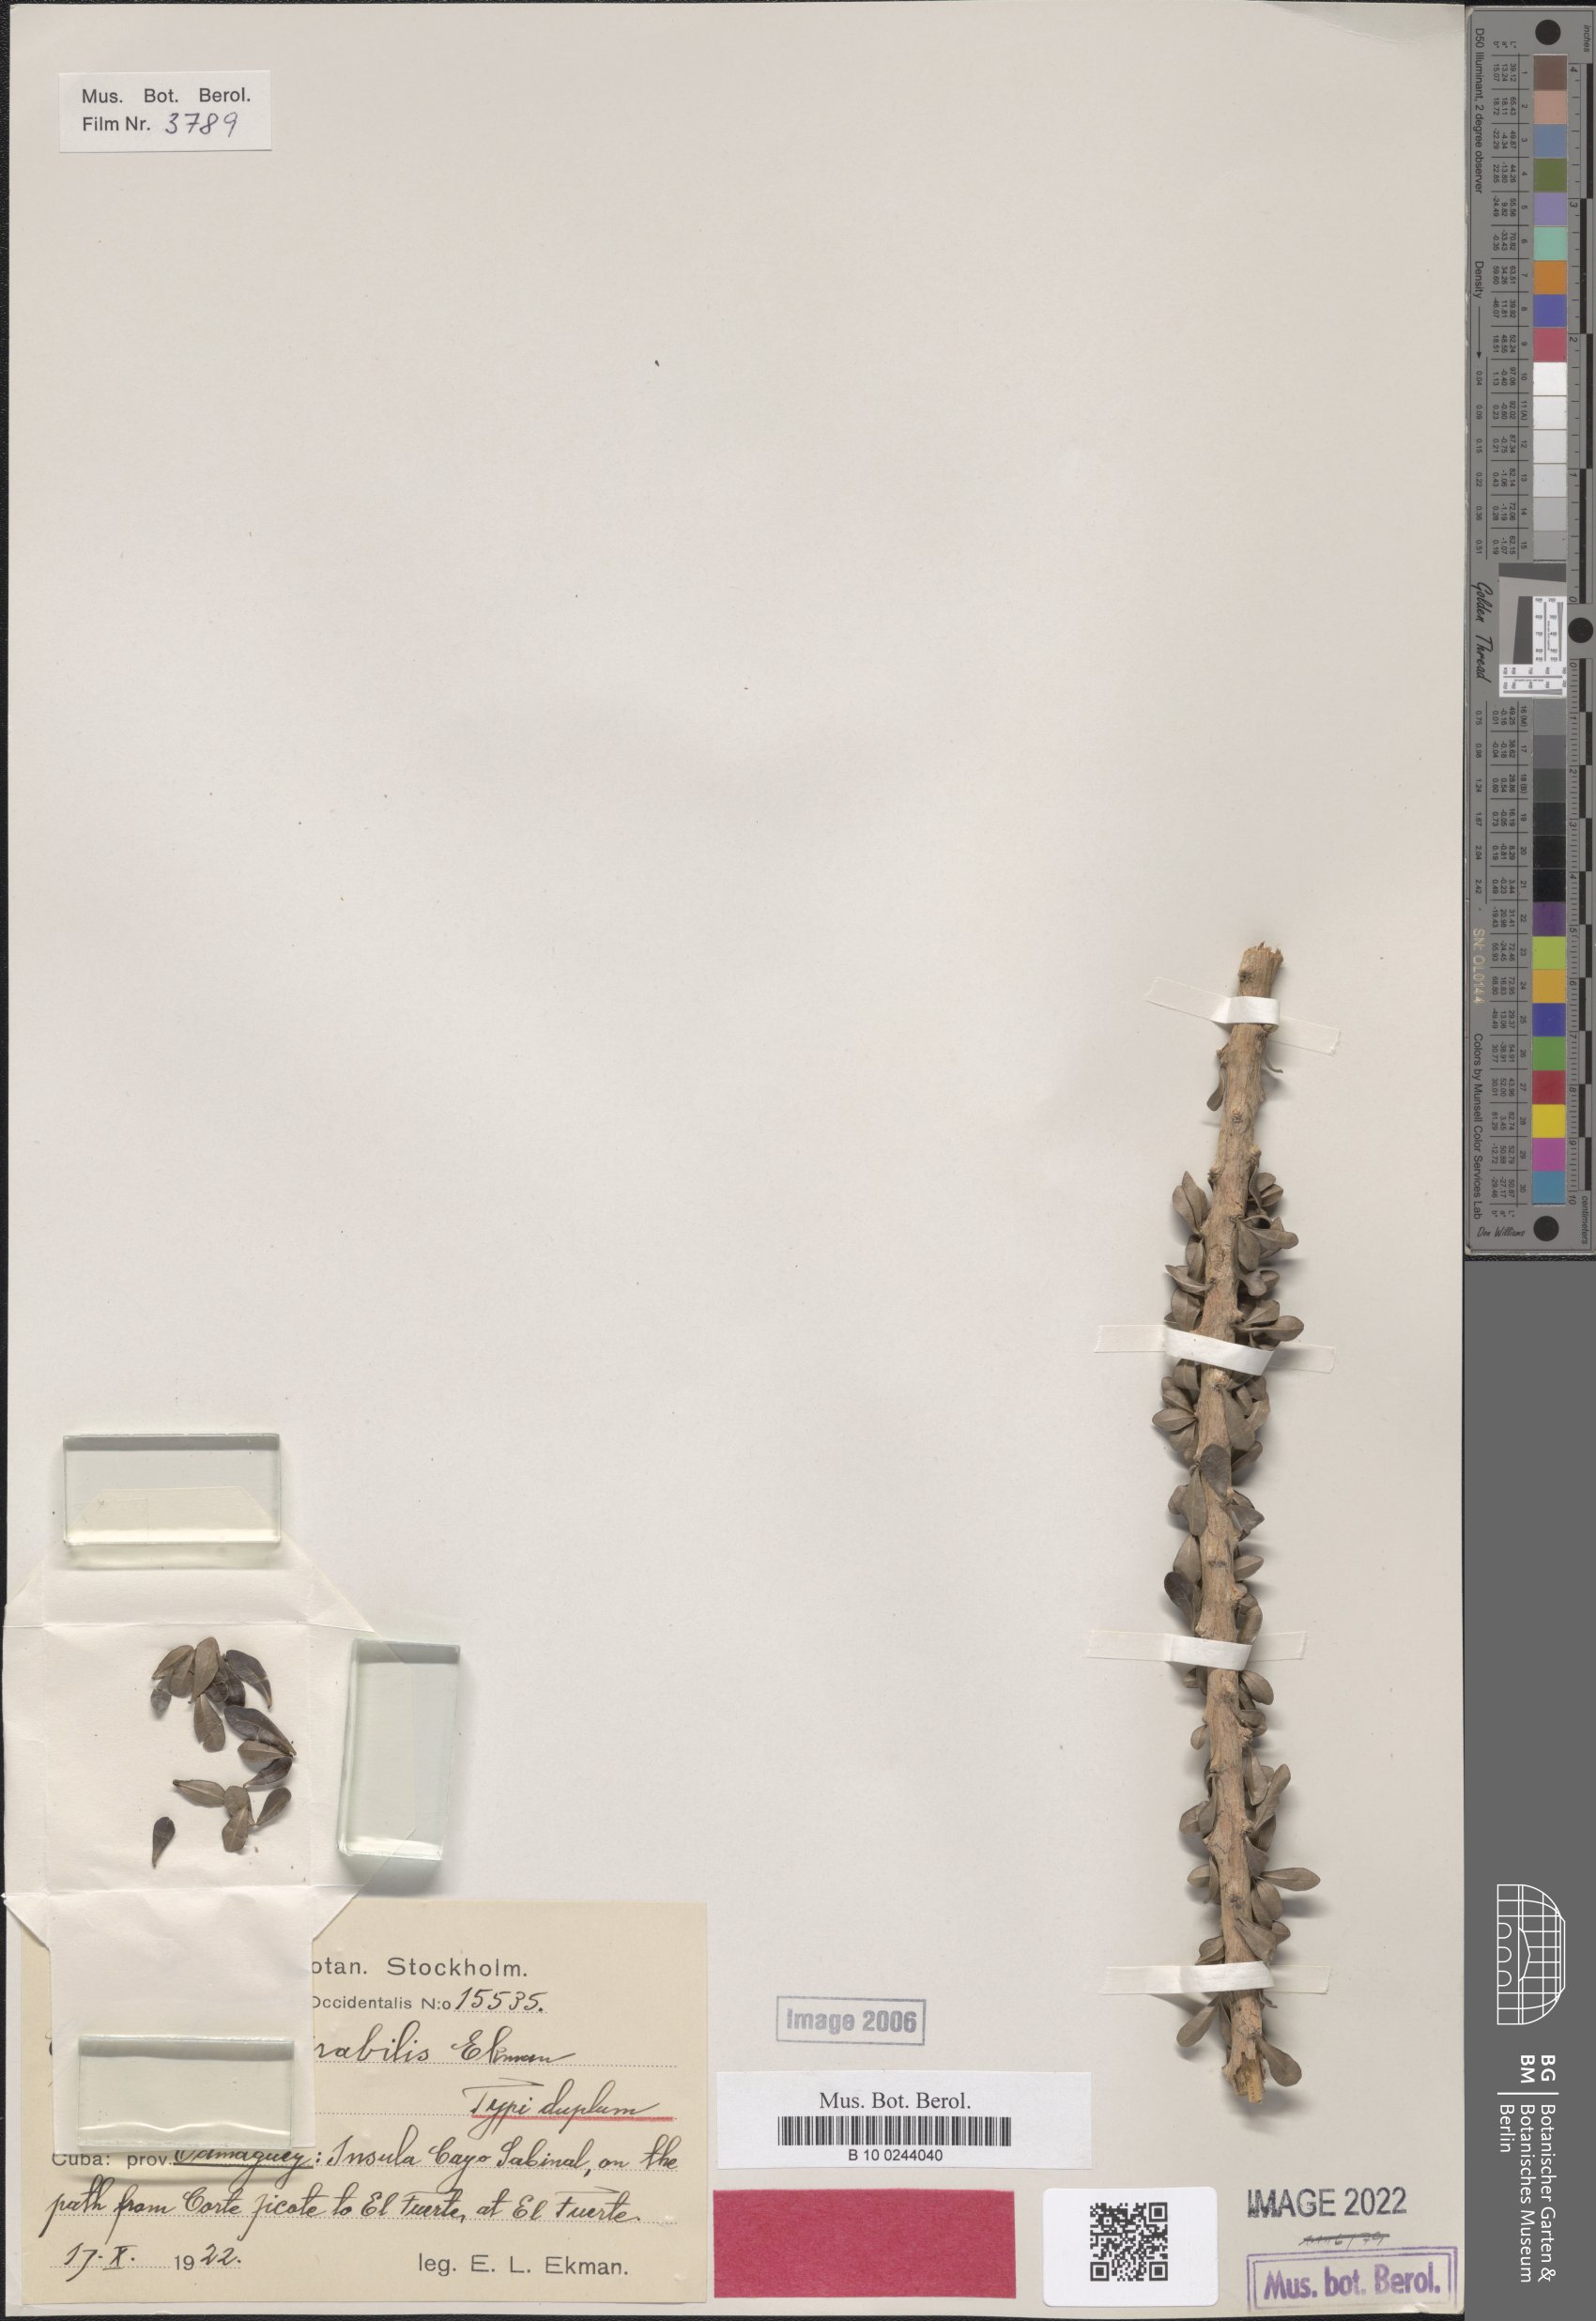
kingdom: Plantae
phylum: Tracheophyta
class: Magnoliopsida
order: Lamiales
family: Bignoniaceae
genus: Crescentia
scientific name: Crescentia mirabilis
